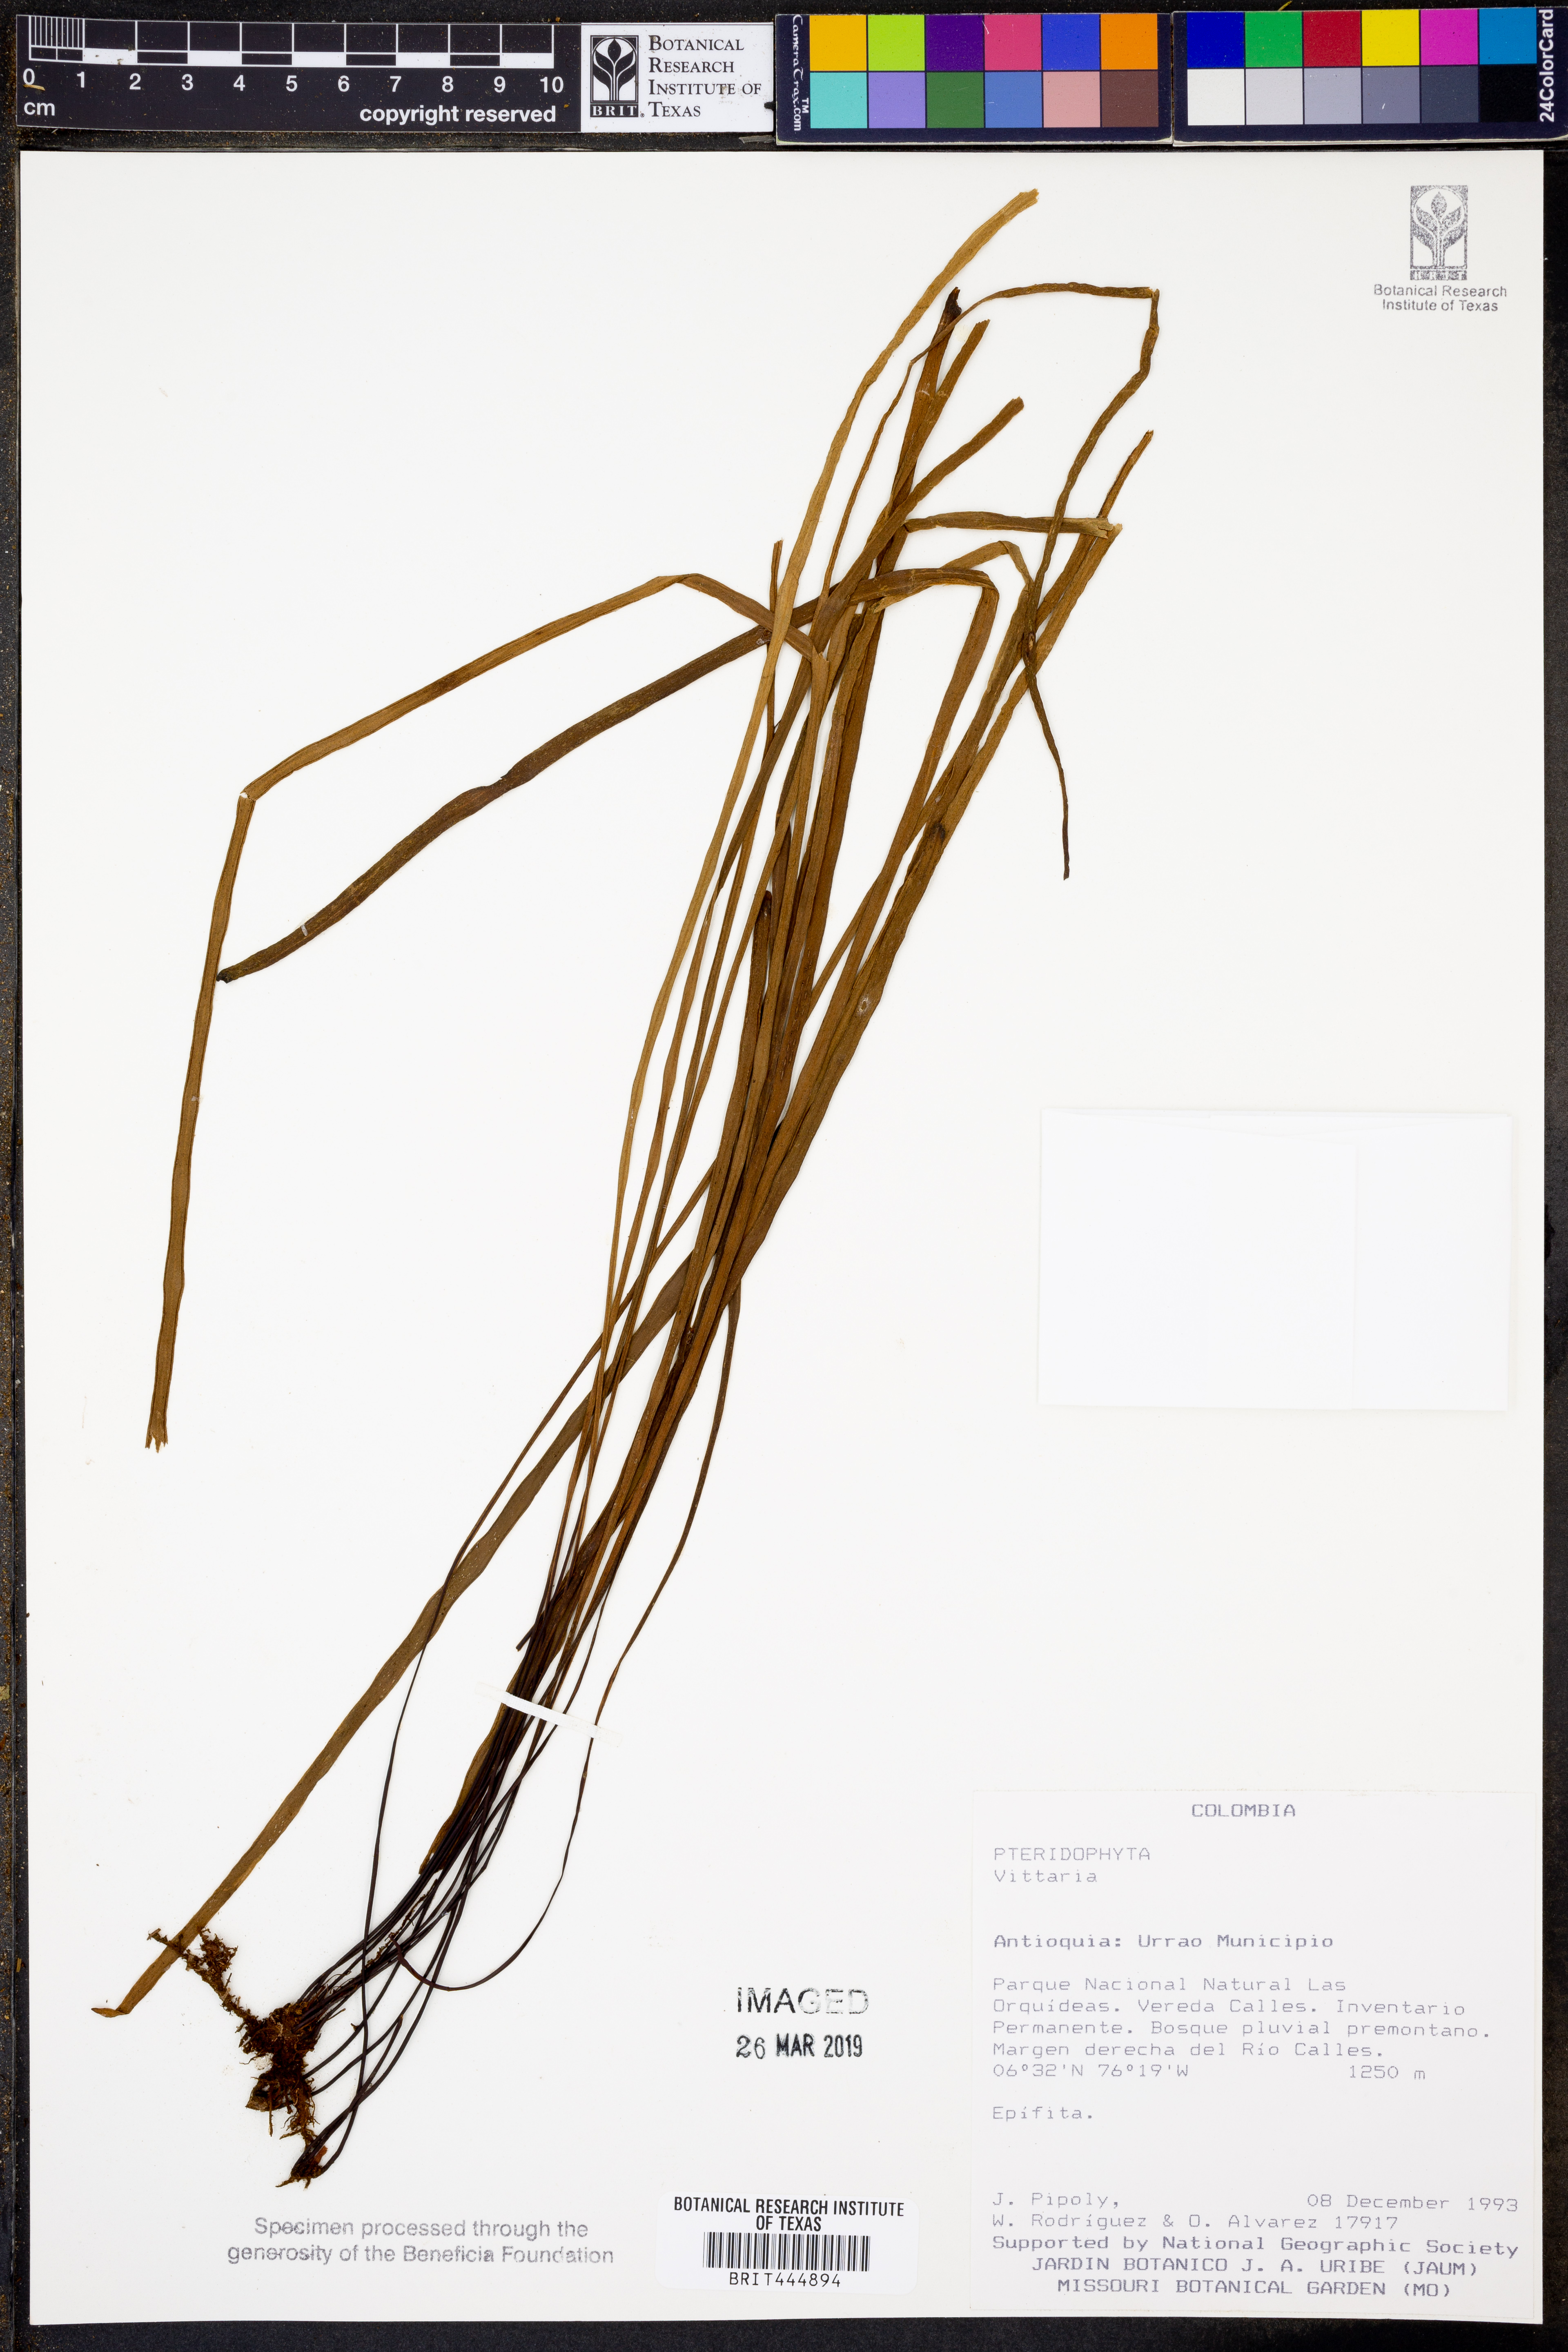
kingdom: Plantae
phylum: Tracheophyta
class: Polypodiopsida
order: Polypodiales
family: Pteridaceae
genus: Vittaria
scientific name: Vittaria
